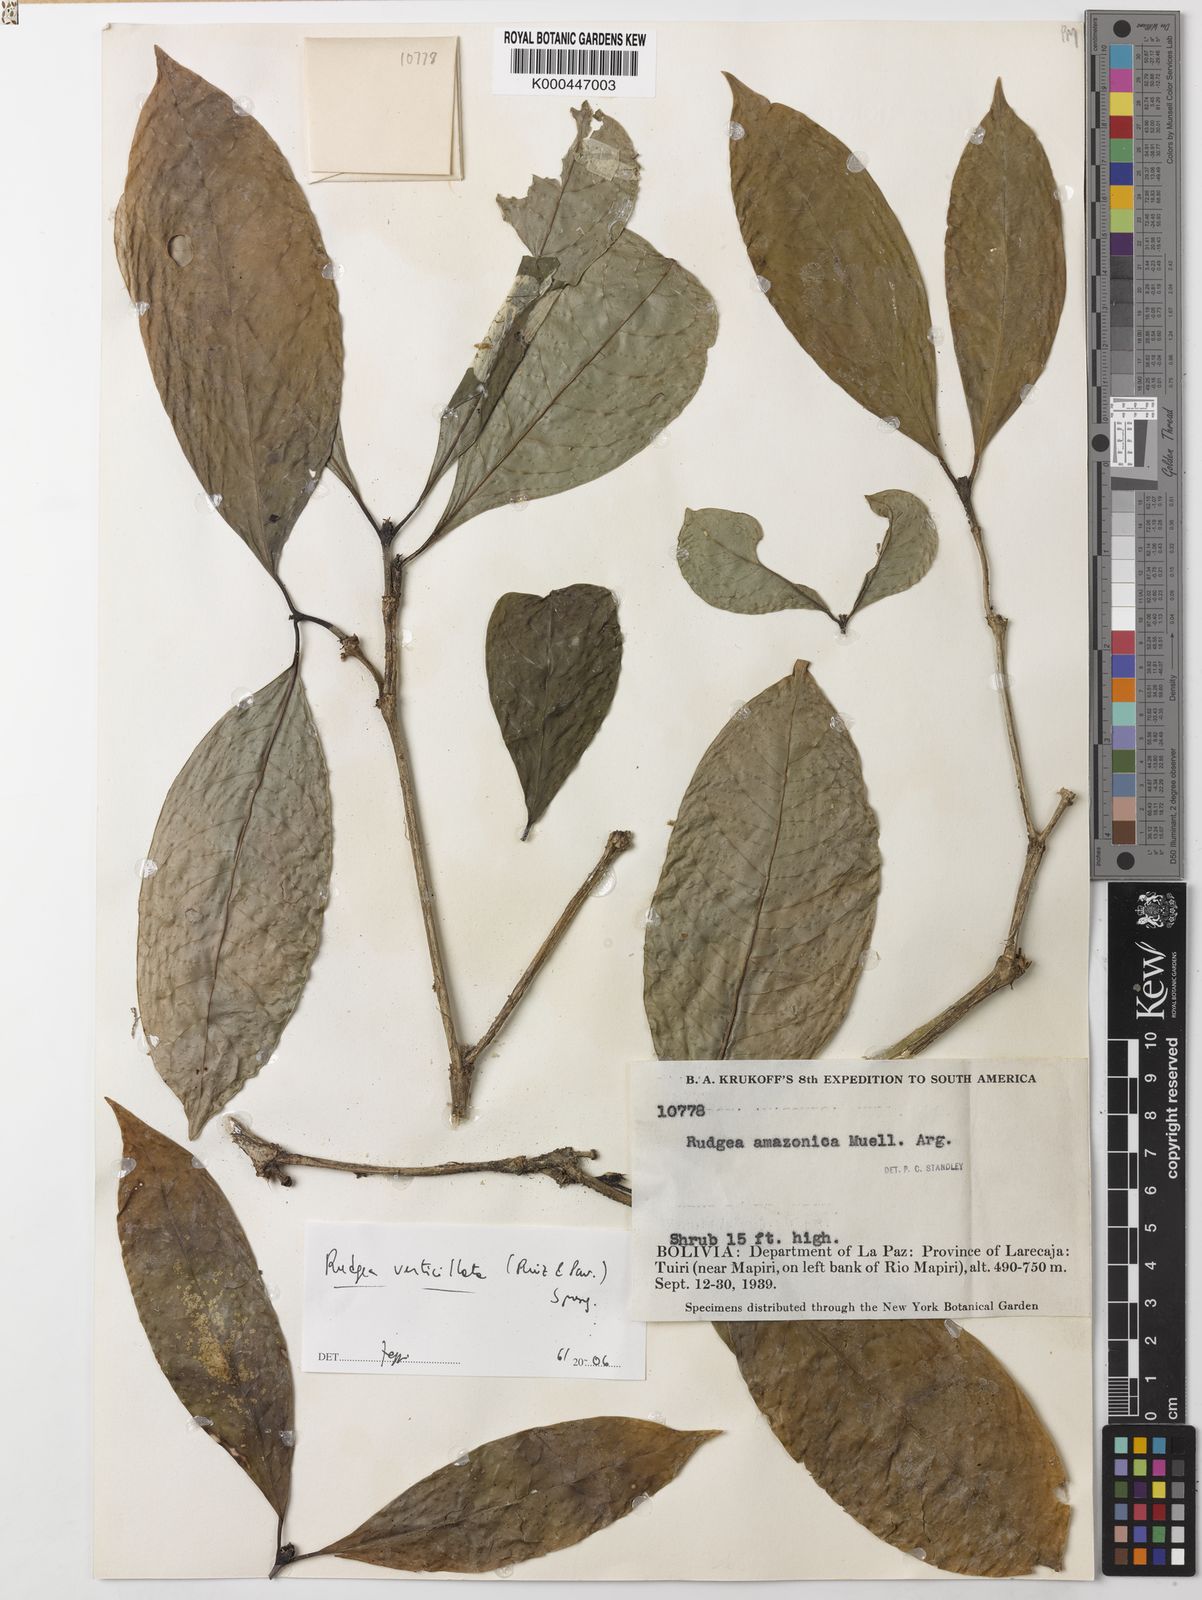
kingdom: Plantae
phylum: Tracheophyta
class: Magnoliopsida
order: Gentianales
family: Rubiaceae
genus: Rudgea
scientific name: Rudgea verticillata
